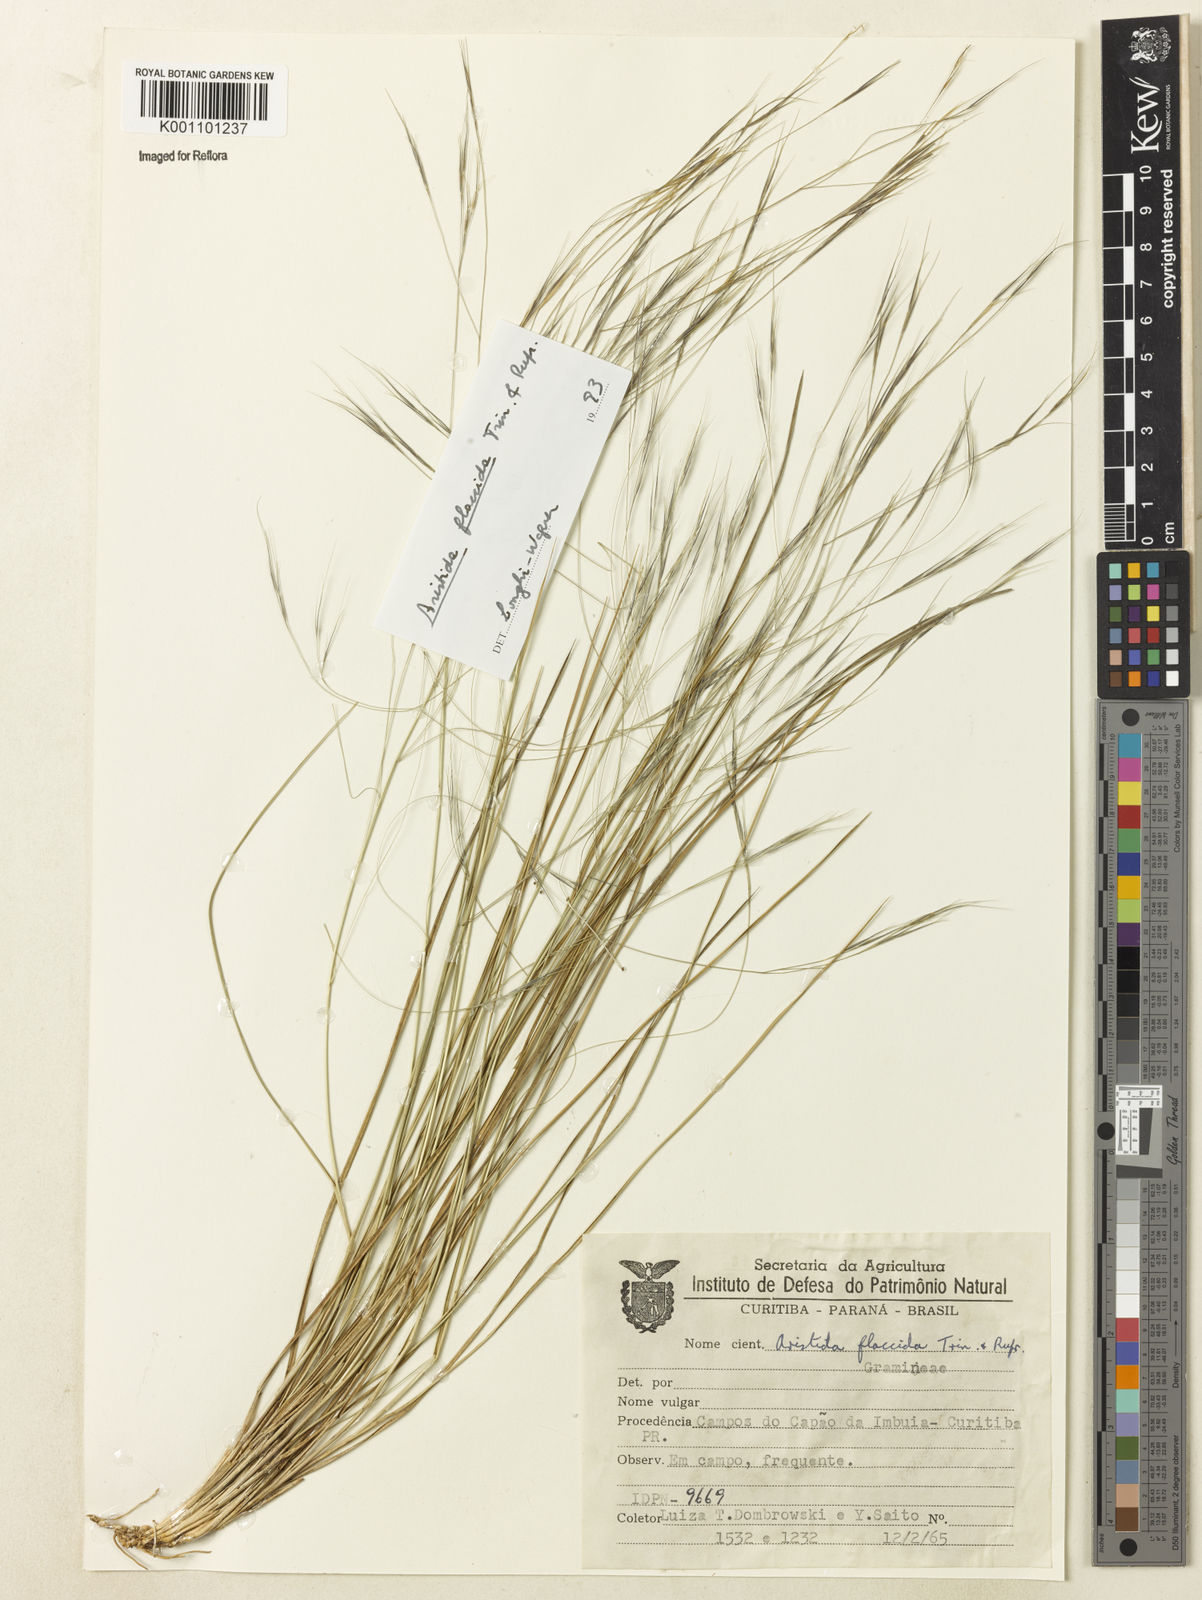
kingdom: Plantae
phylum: Tracheophyta
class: Liliopsida
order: Poales
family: Poaceae
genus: Aristida
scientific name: Aristida flaccida
